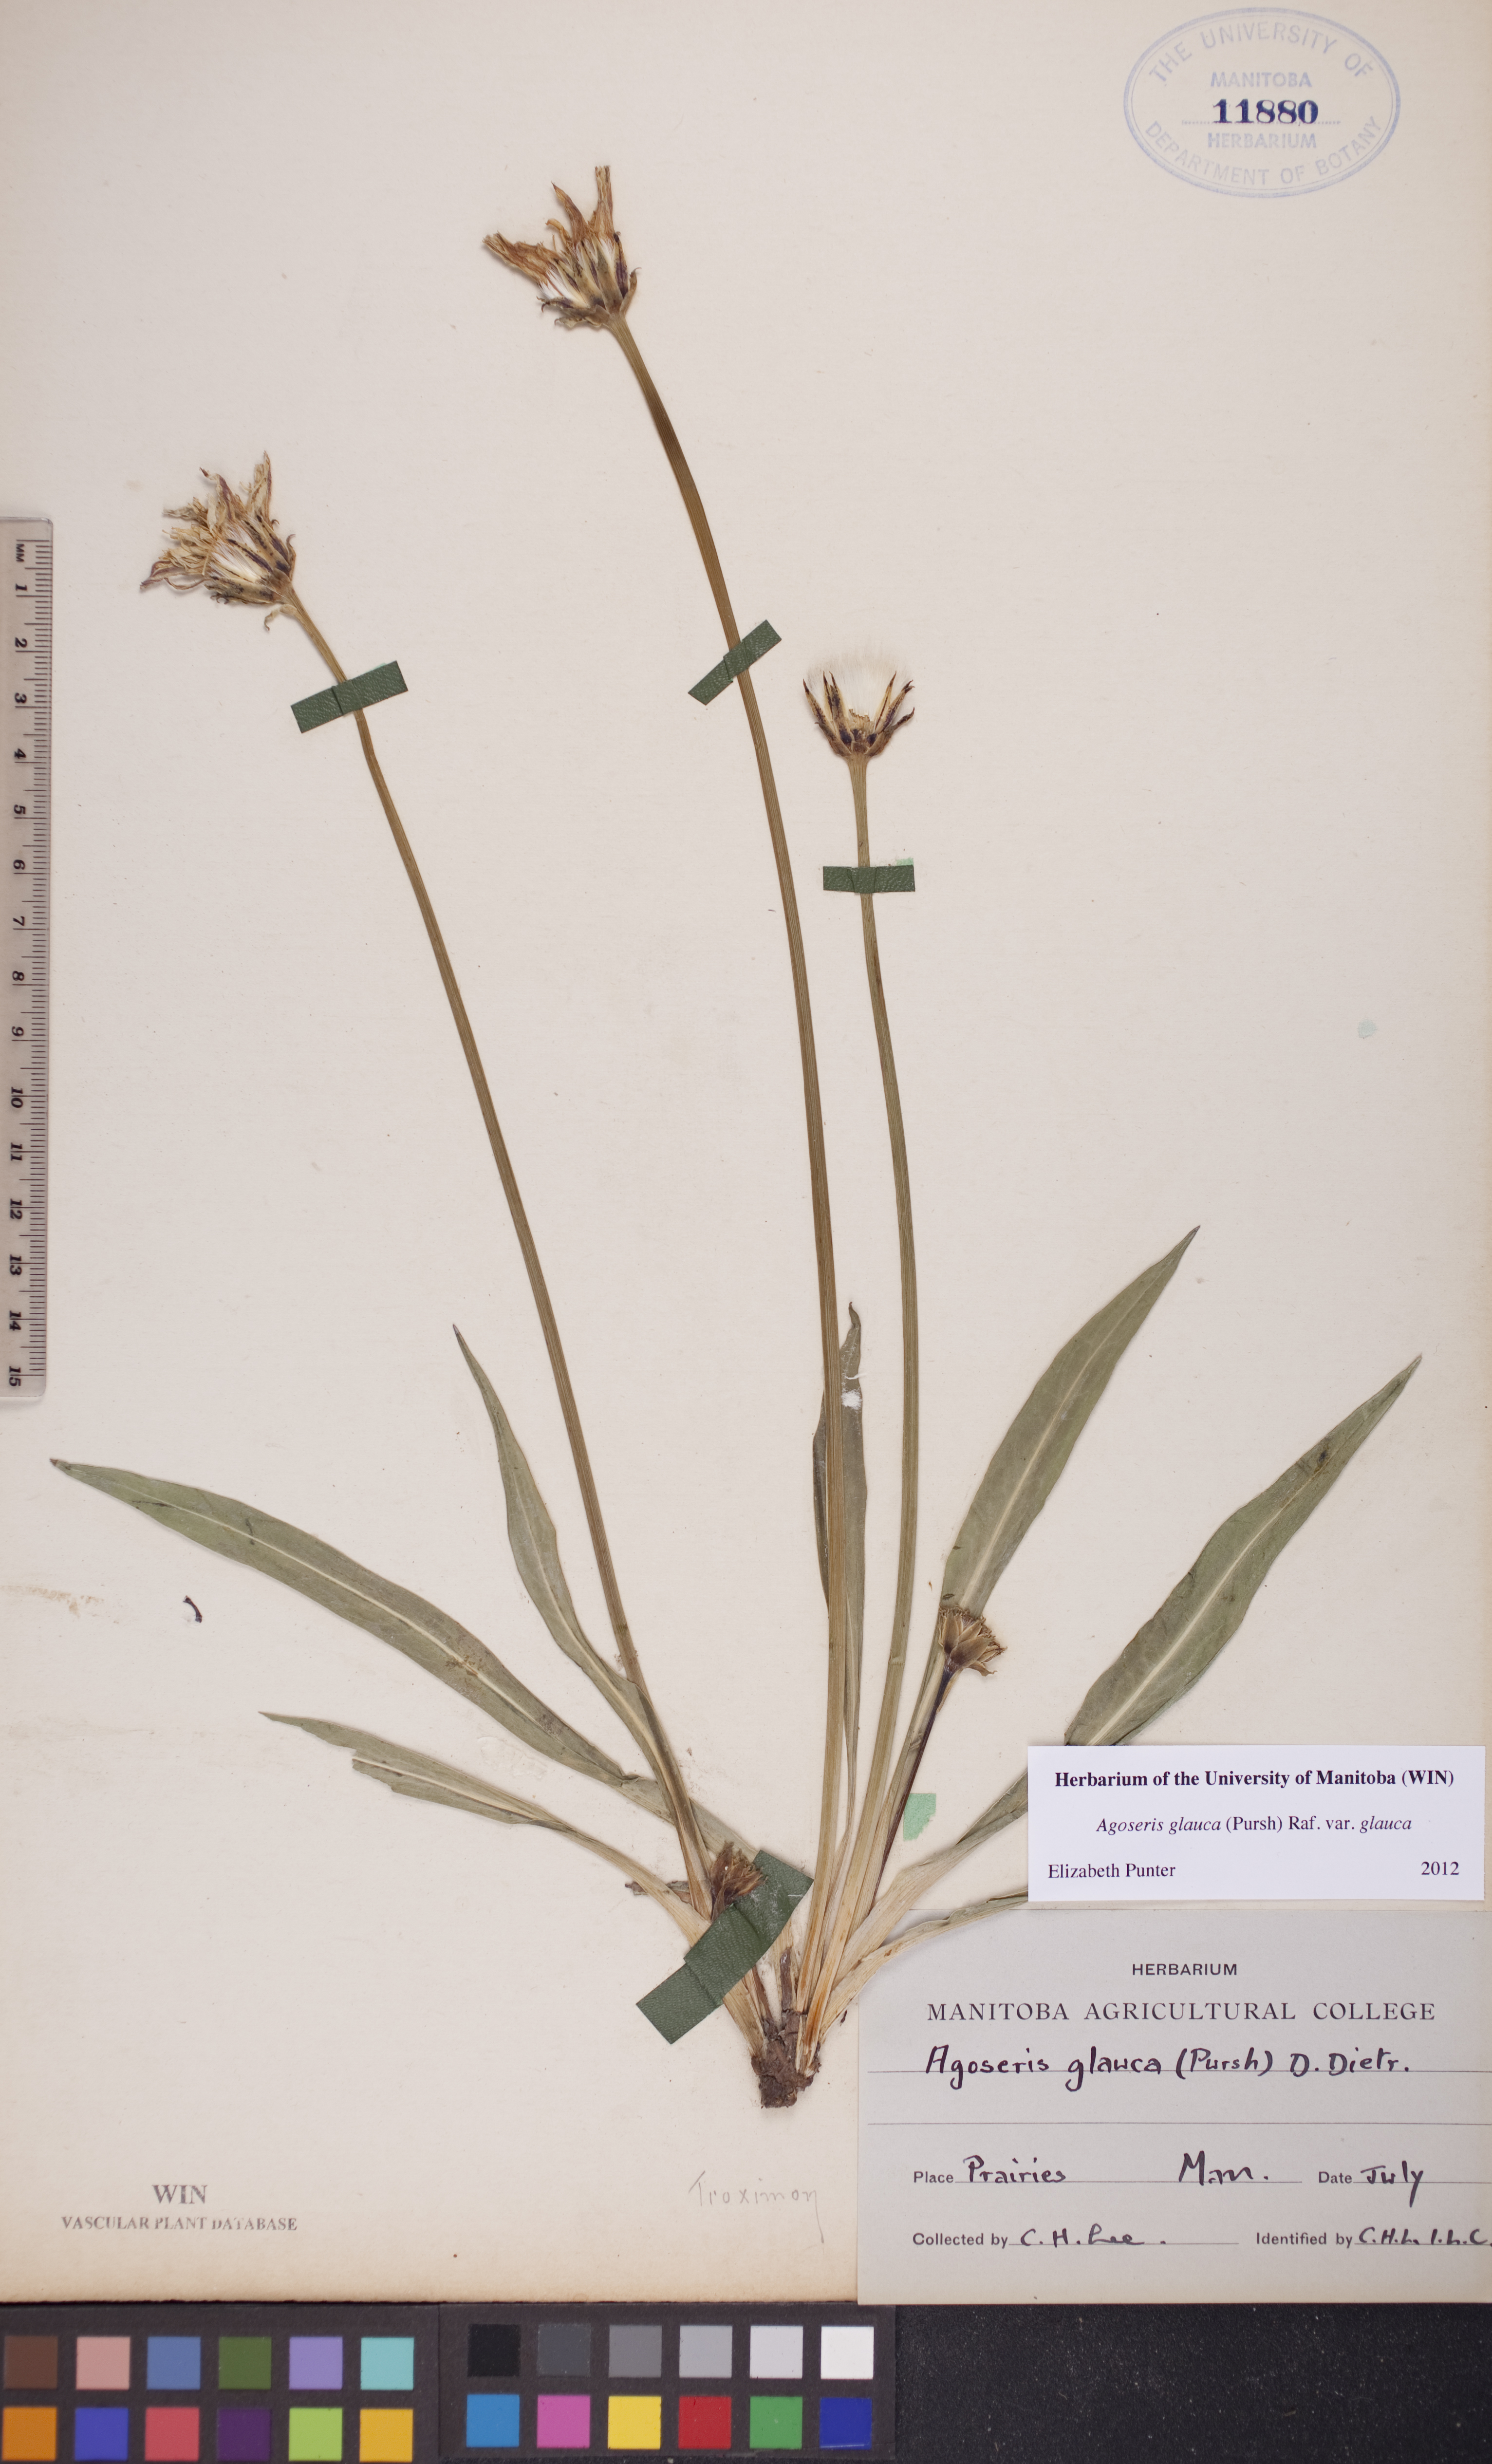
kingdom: Plantae
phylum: Tracheophyta
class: Magnoliopsida
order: Asterales
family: Asteraceae
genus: Agoseris
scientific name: Agoseris glauca
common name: Prairie agoseris
